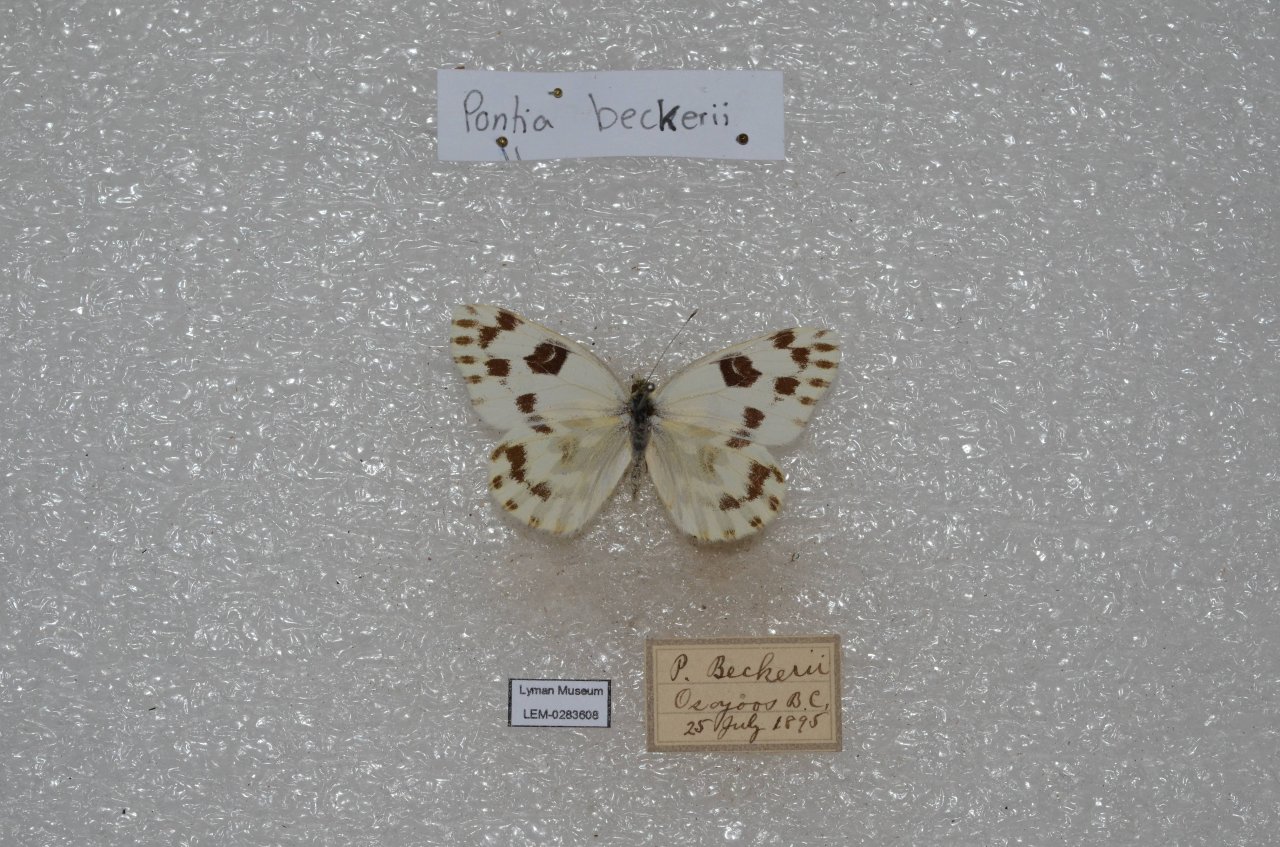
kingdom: Animalia
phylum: Arthropoda
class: Insecta
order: Lepidoptera
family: Pieridae
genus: Pontia
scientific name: Pontia beckerii
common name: Becker's White
